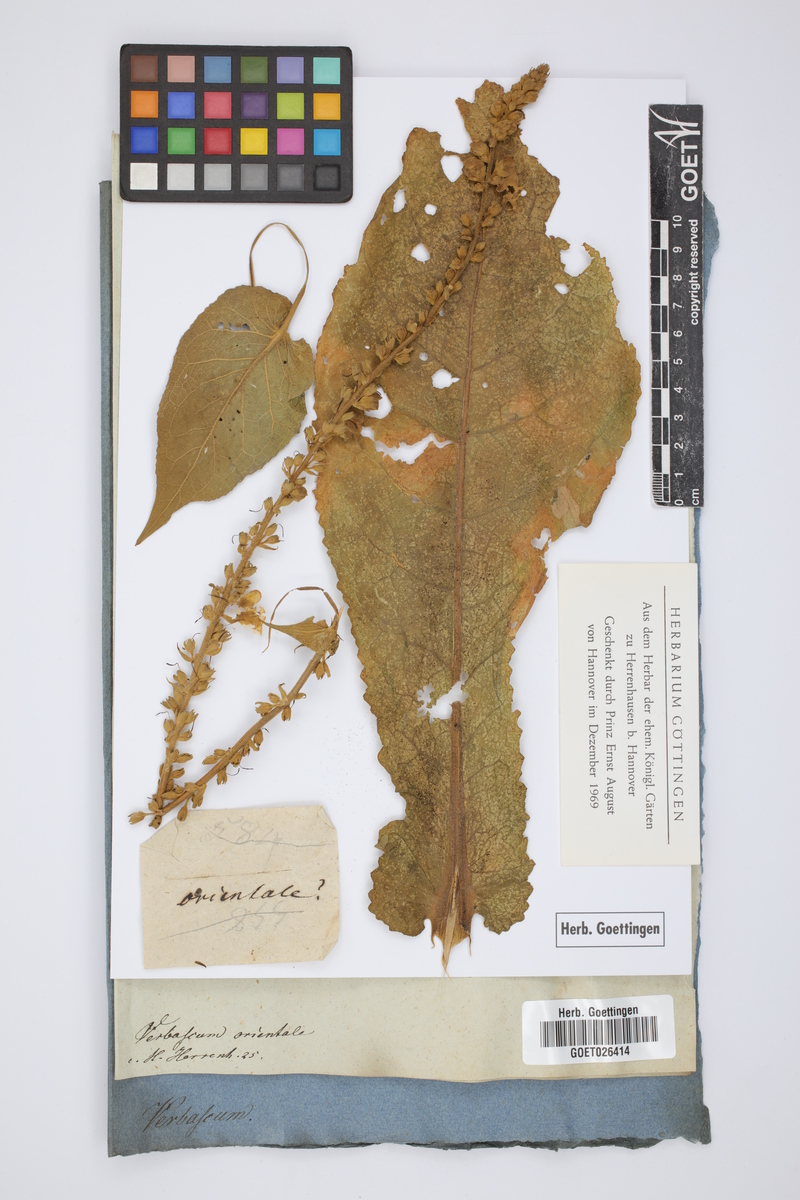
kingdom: Plantae
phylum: Tracheophyta
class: Magnoliopsida
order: Lamiales
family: Scrophulariaceae
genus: Verbascum
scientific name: Verbascum chaixii
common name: Nettle-leaved mullein
